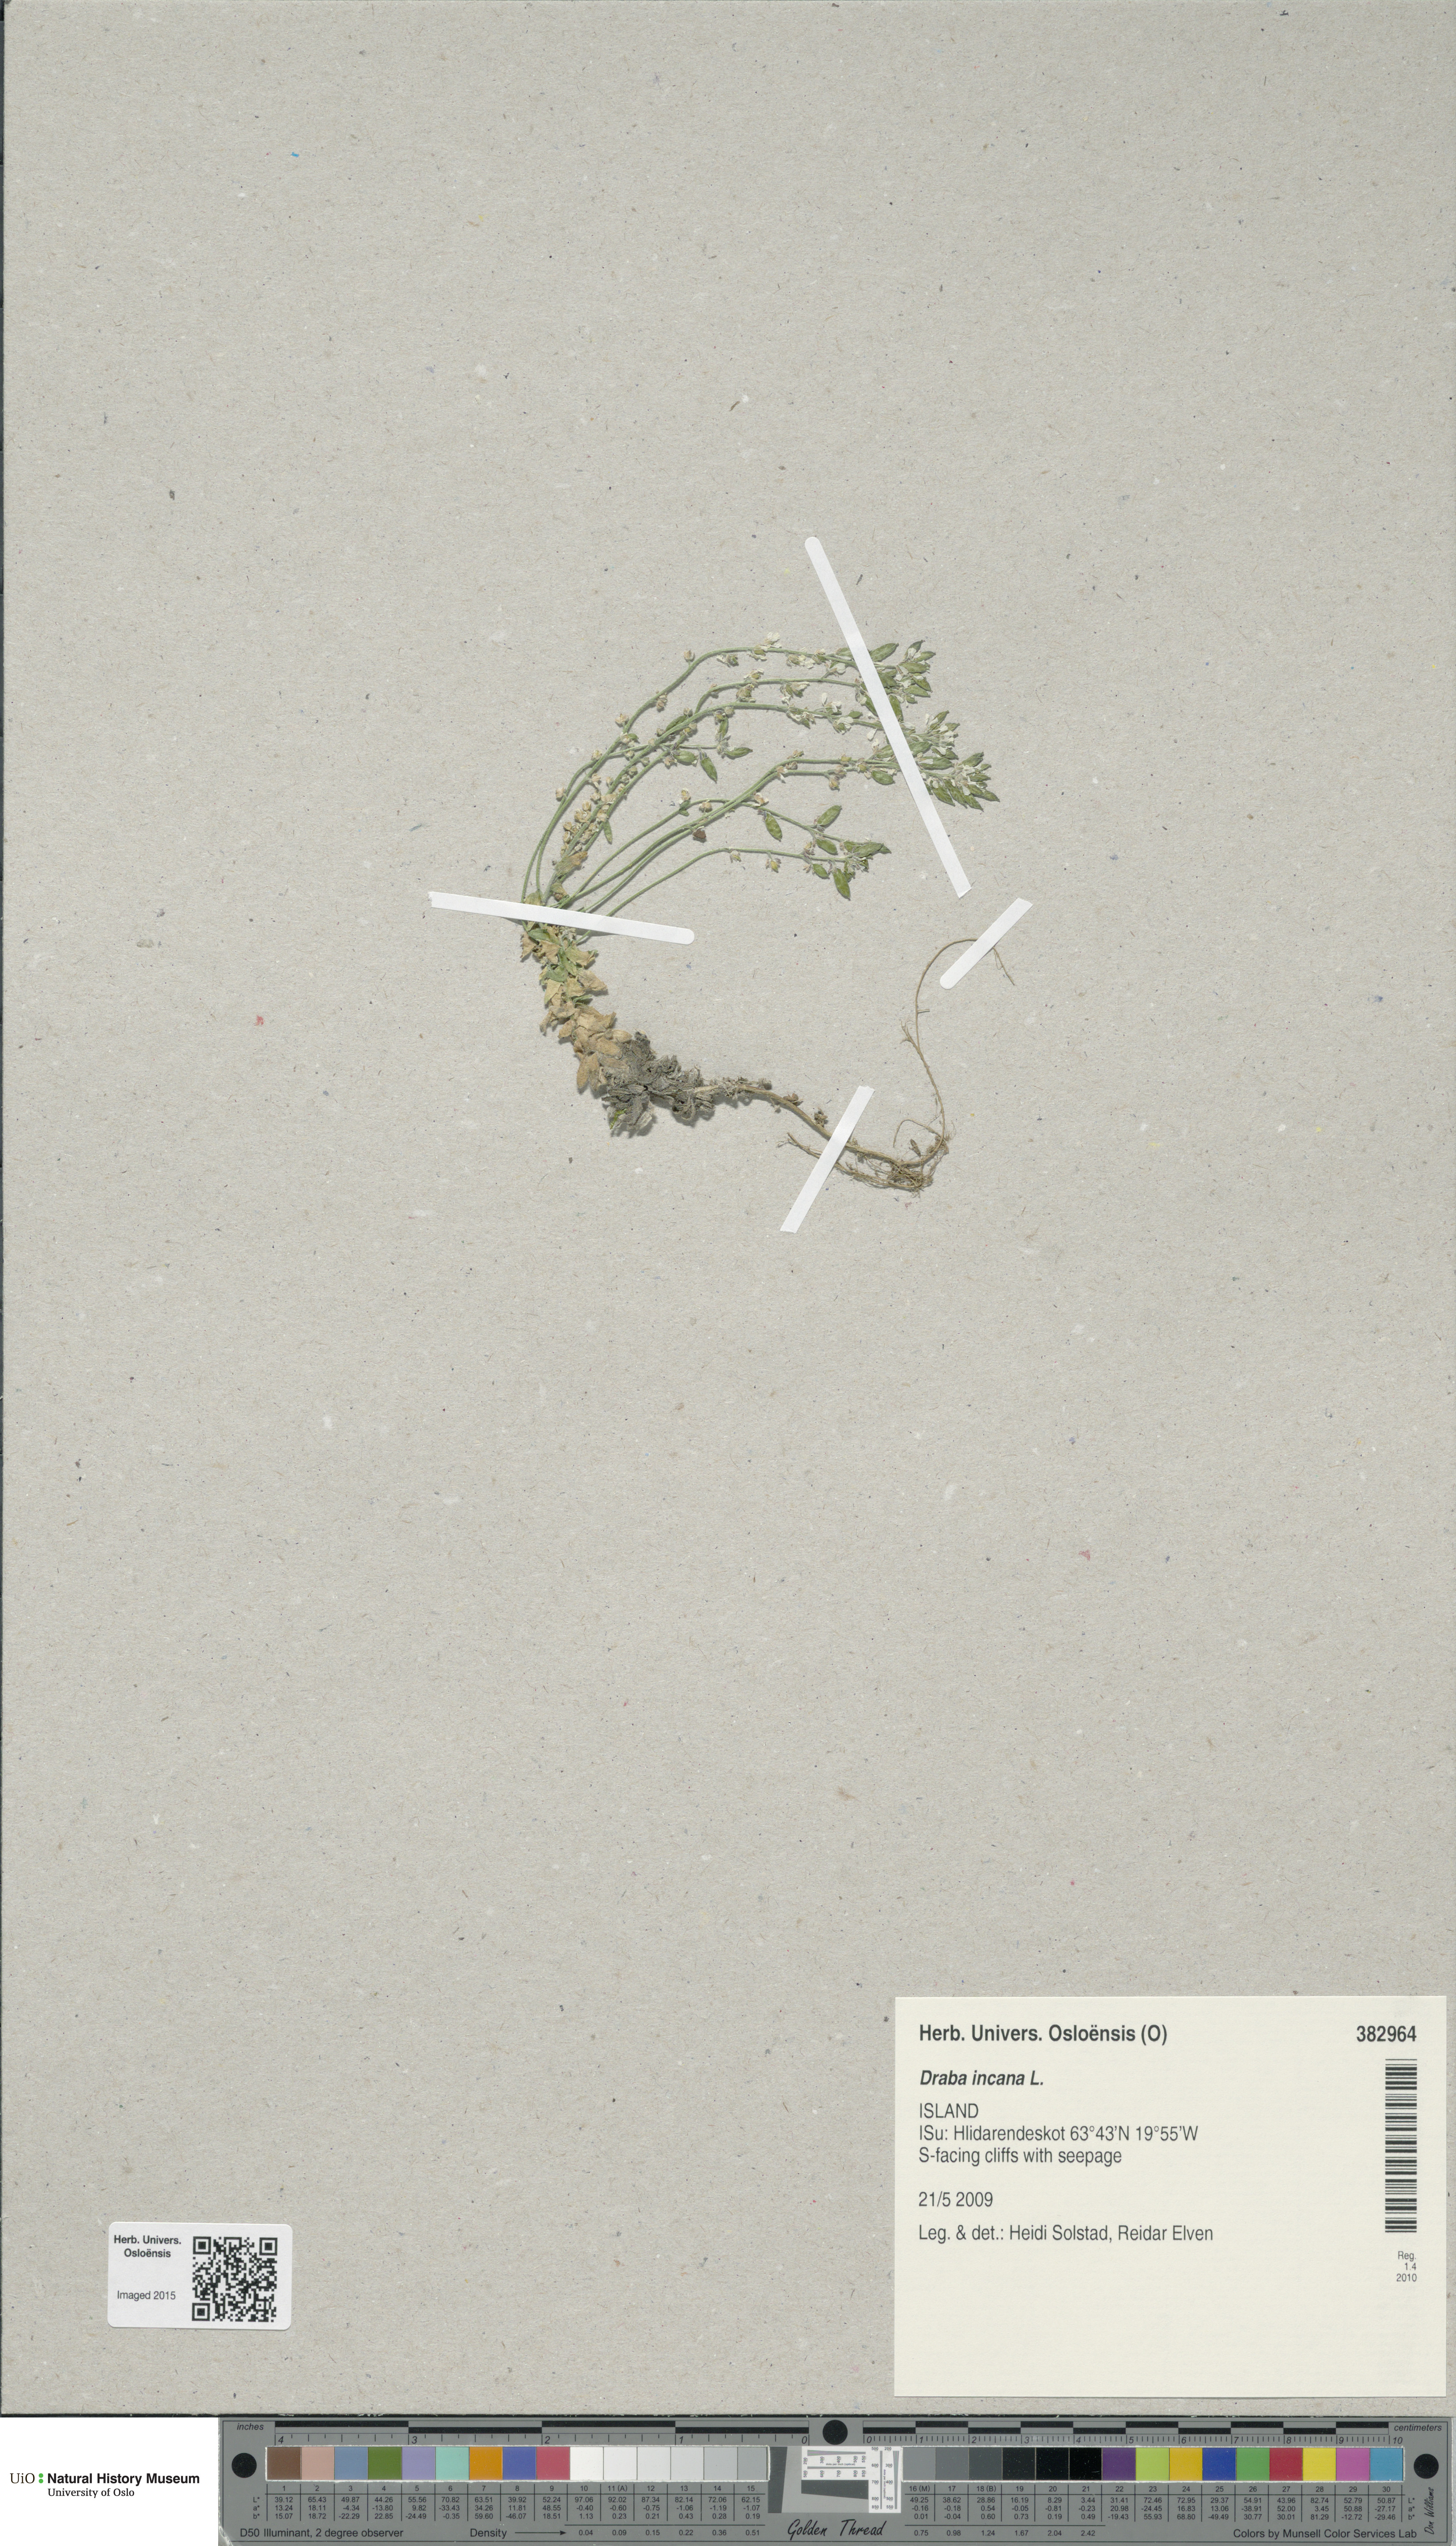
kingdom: Plantae
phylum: Tracheophyta
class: Magnoliopsida
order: Brassicales
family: Brassicaceae
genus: Draba
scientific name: Draba incana
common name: Hoary whitlow-grass
